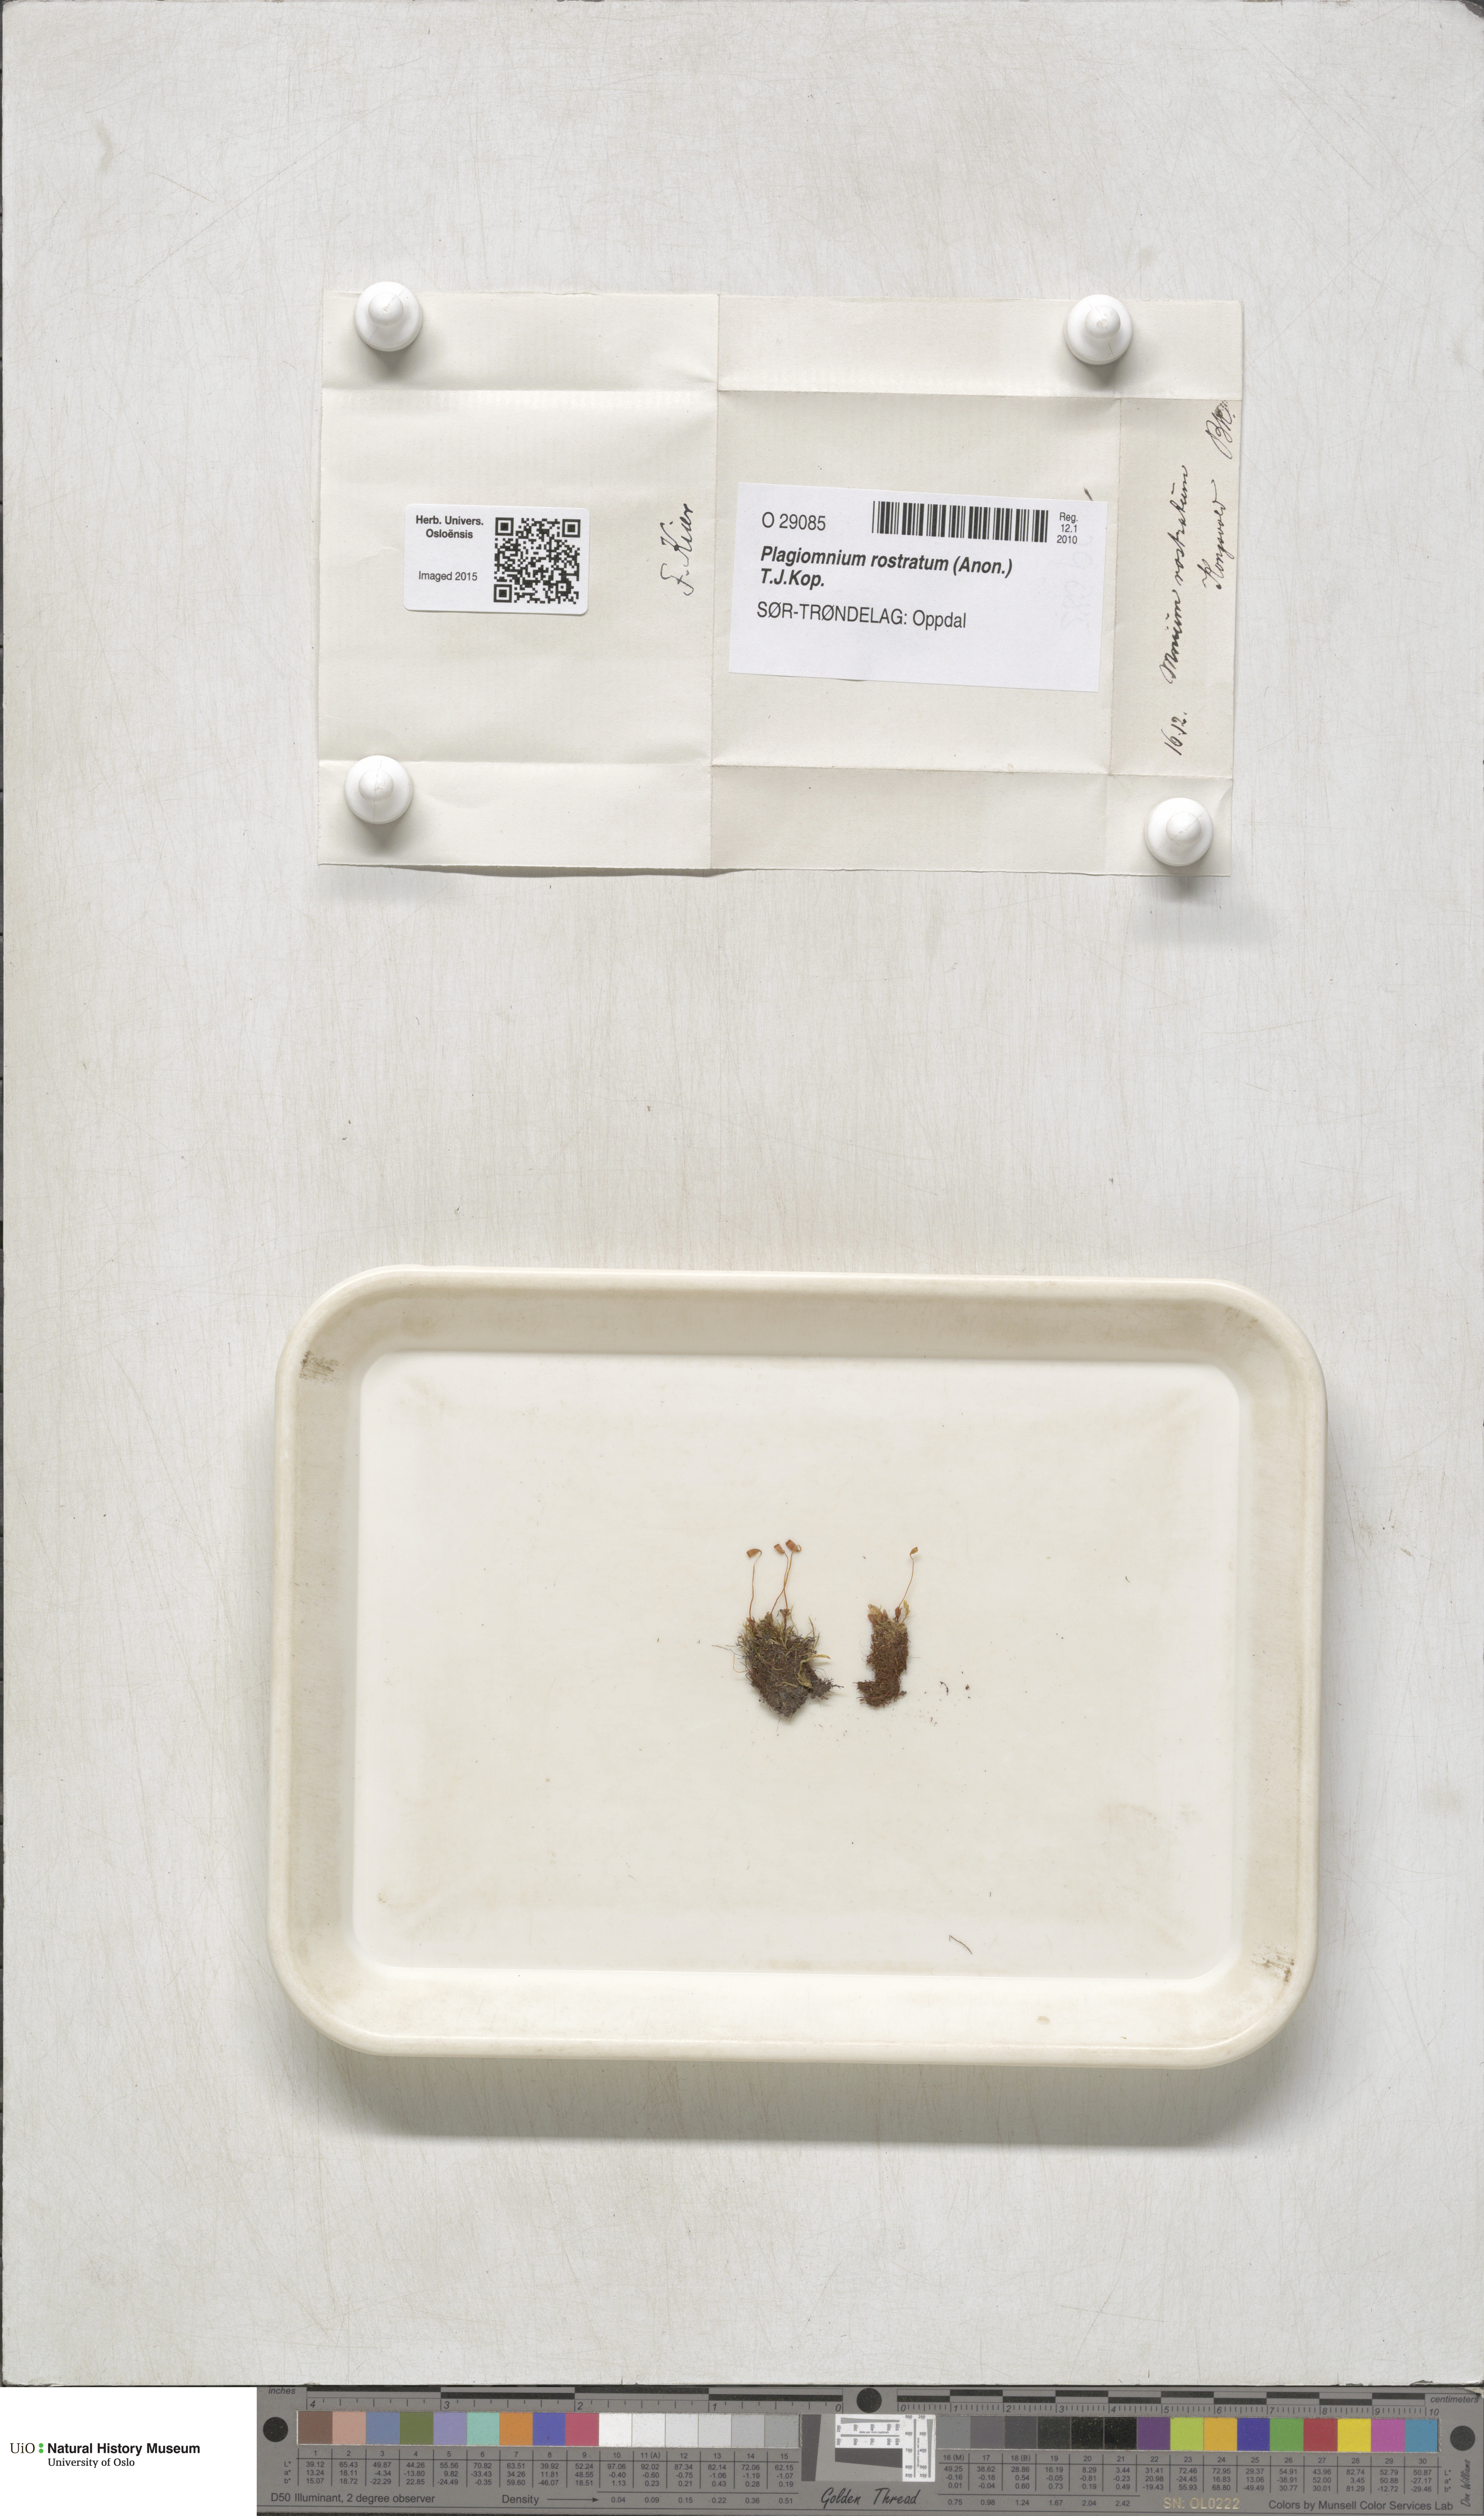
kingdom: Plantae
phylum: Bryophyta
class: Bryopsida
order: Bryales
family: Mniaceae
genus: Plagiomnium
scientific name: Plagiomnium rostratum
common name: Long-beaked leafy moss
